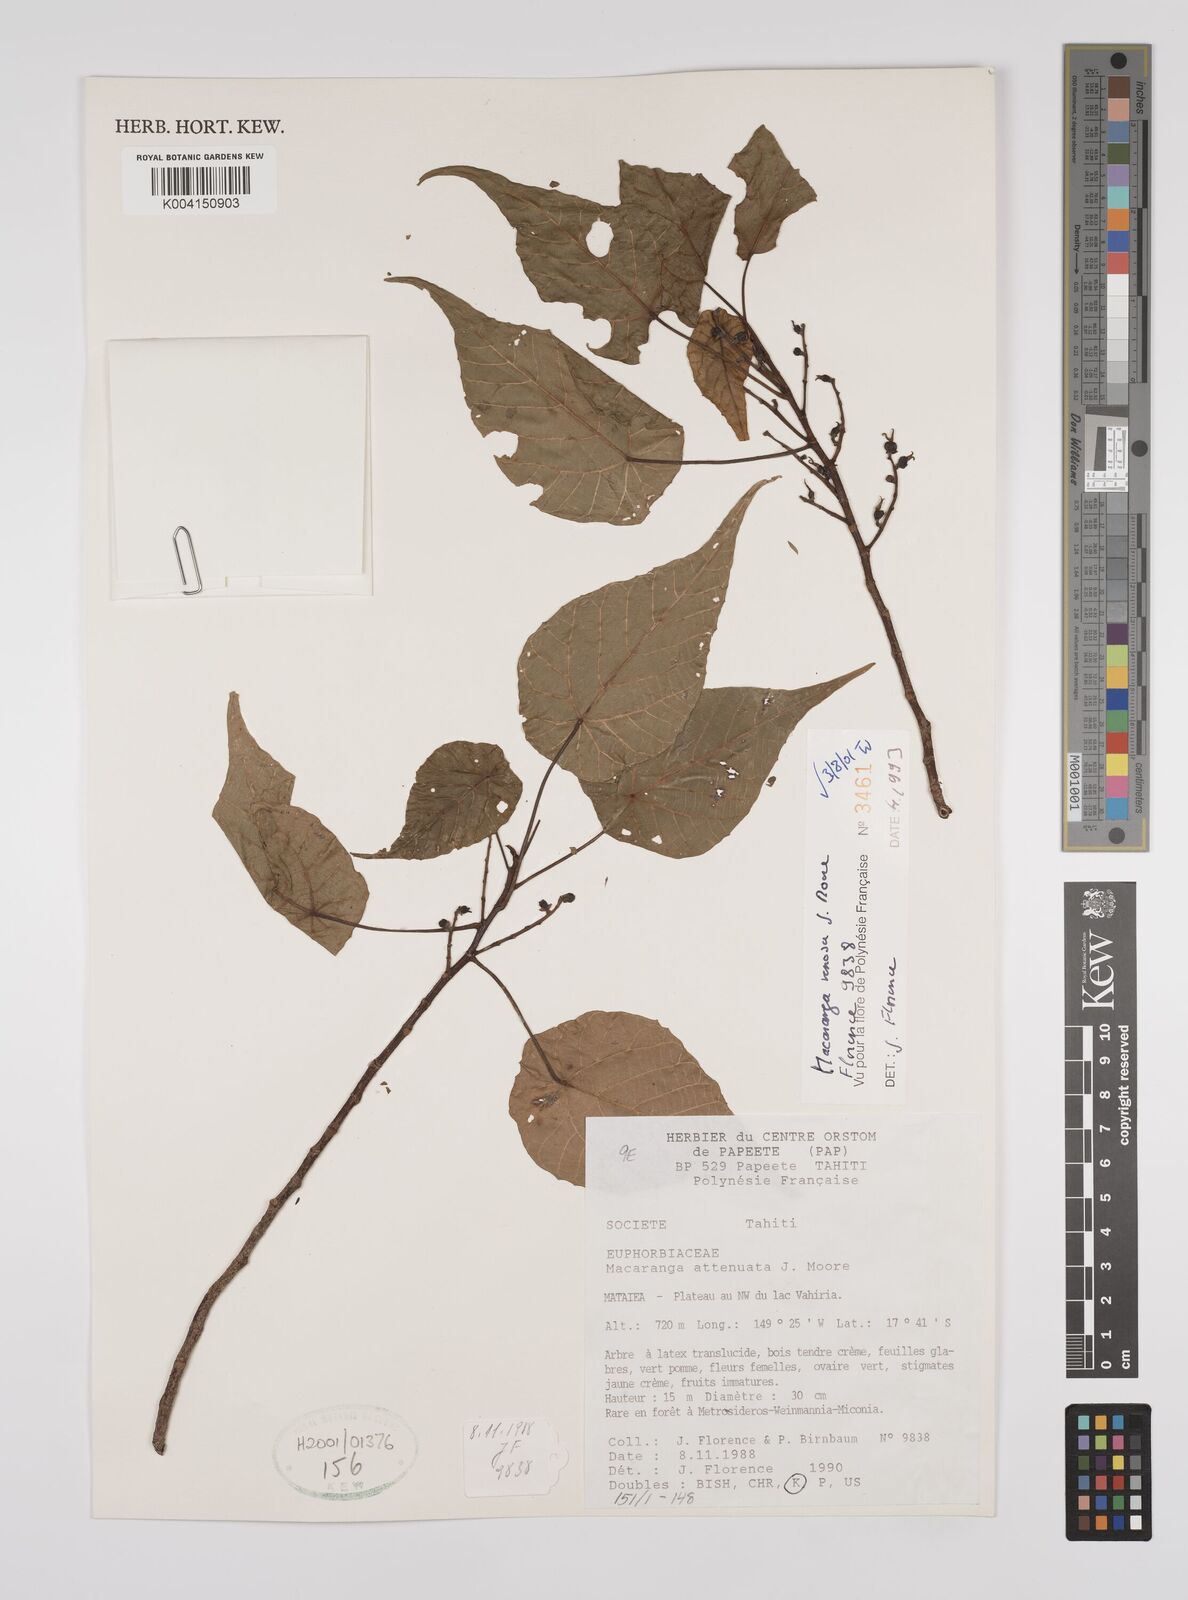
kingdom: Plantae
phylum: Tracheophyta
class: Magnoliopsida
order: Malpighiales
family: Euphorbiaceae
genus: Macaranga
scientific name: Macaranga venosa
